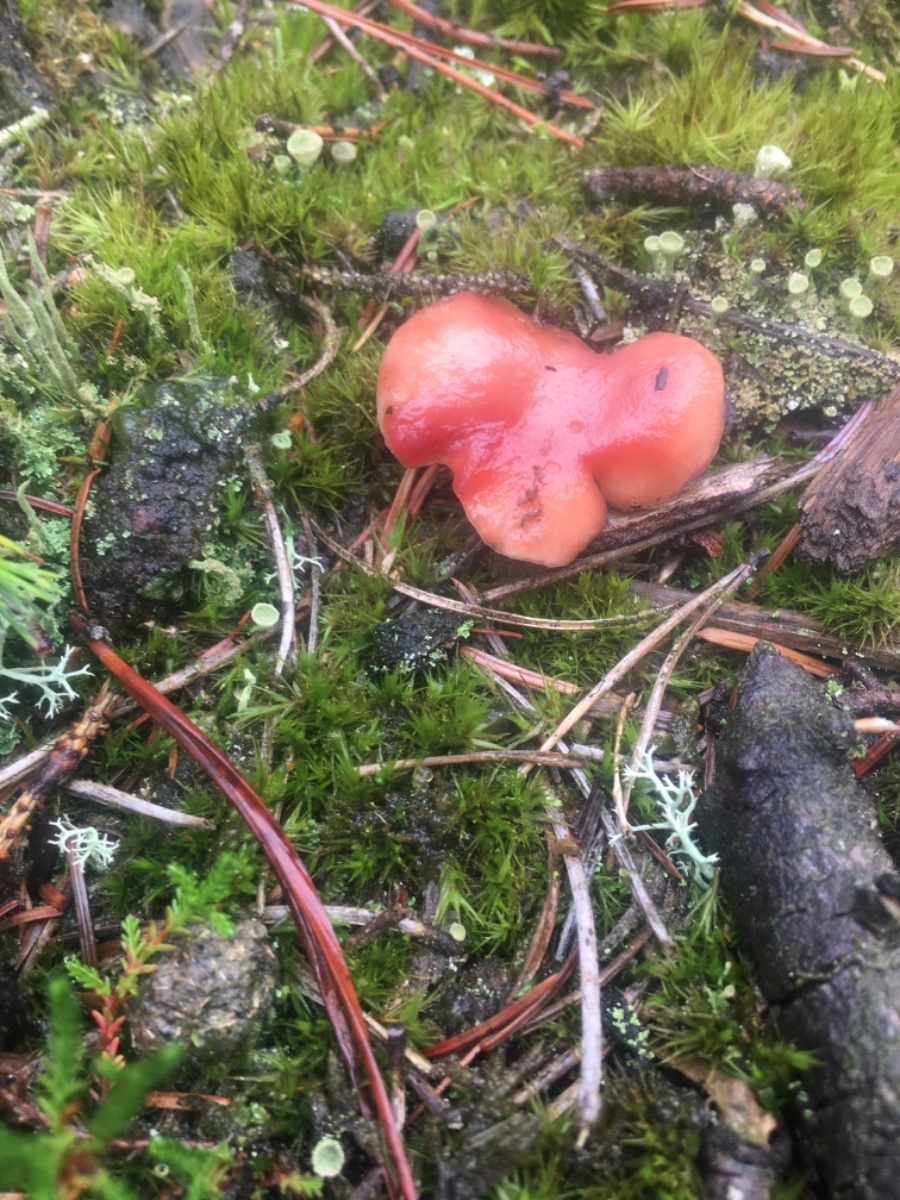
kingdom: Fungi
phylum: Basidiomycota
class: Agaricomycetes
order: Boletales
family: Gomphidiaceae
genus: Gomphidius
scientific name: Gomphidius roseus
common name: rosenrød slimslør
